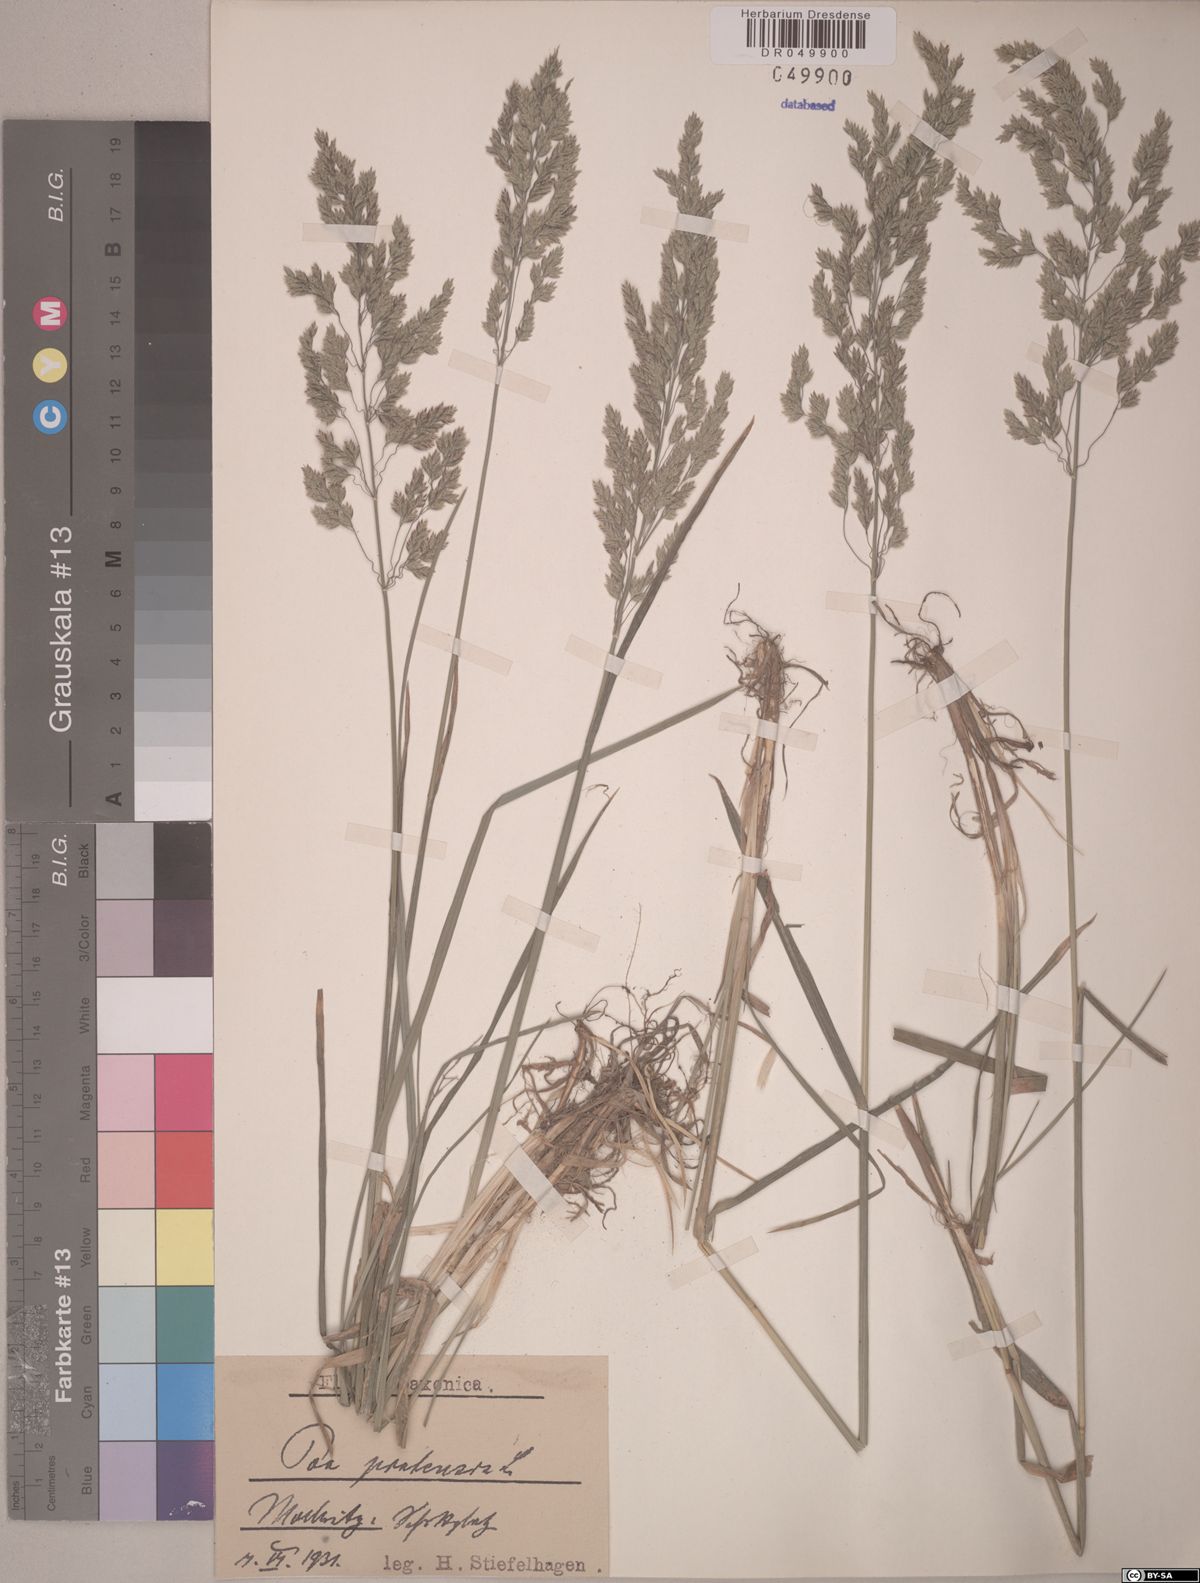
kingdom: Plantae
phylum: Tracheophyta
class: Liliopsida
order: Poales
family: Poaceae
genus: Poa
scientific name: Poa pratensis
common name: Kentucky bluegrass
